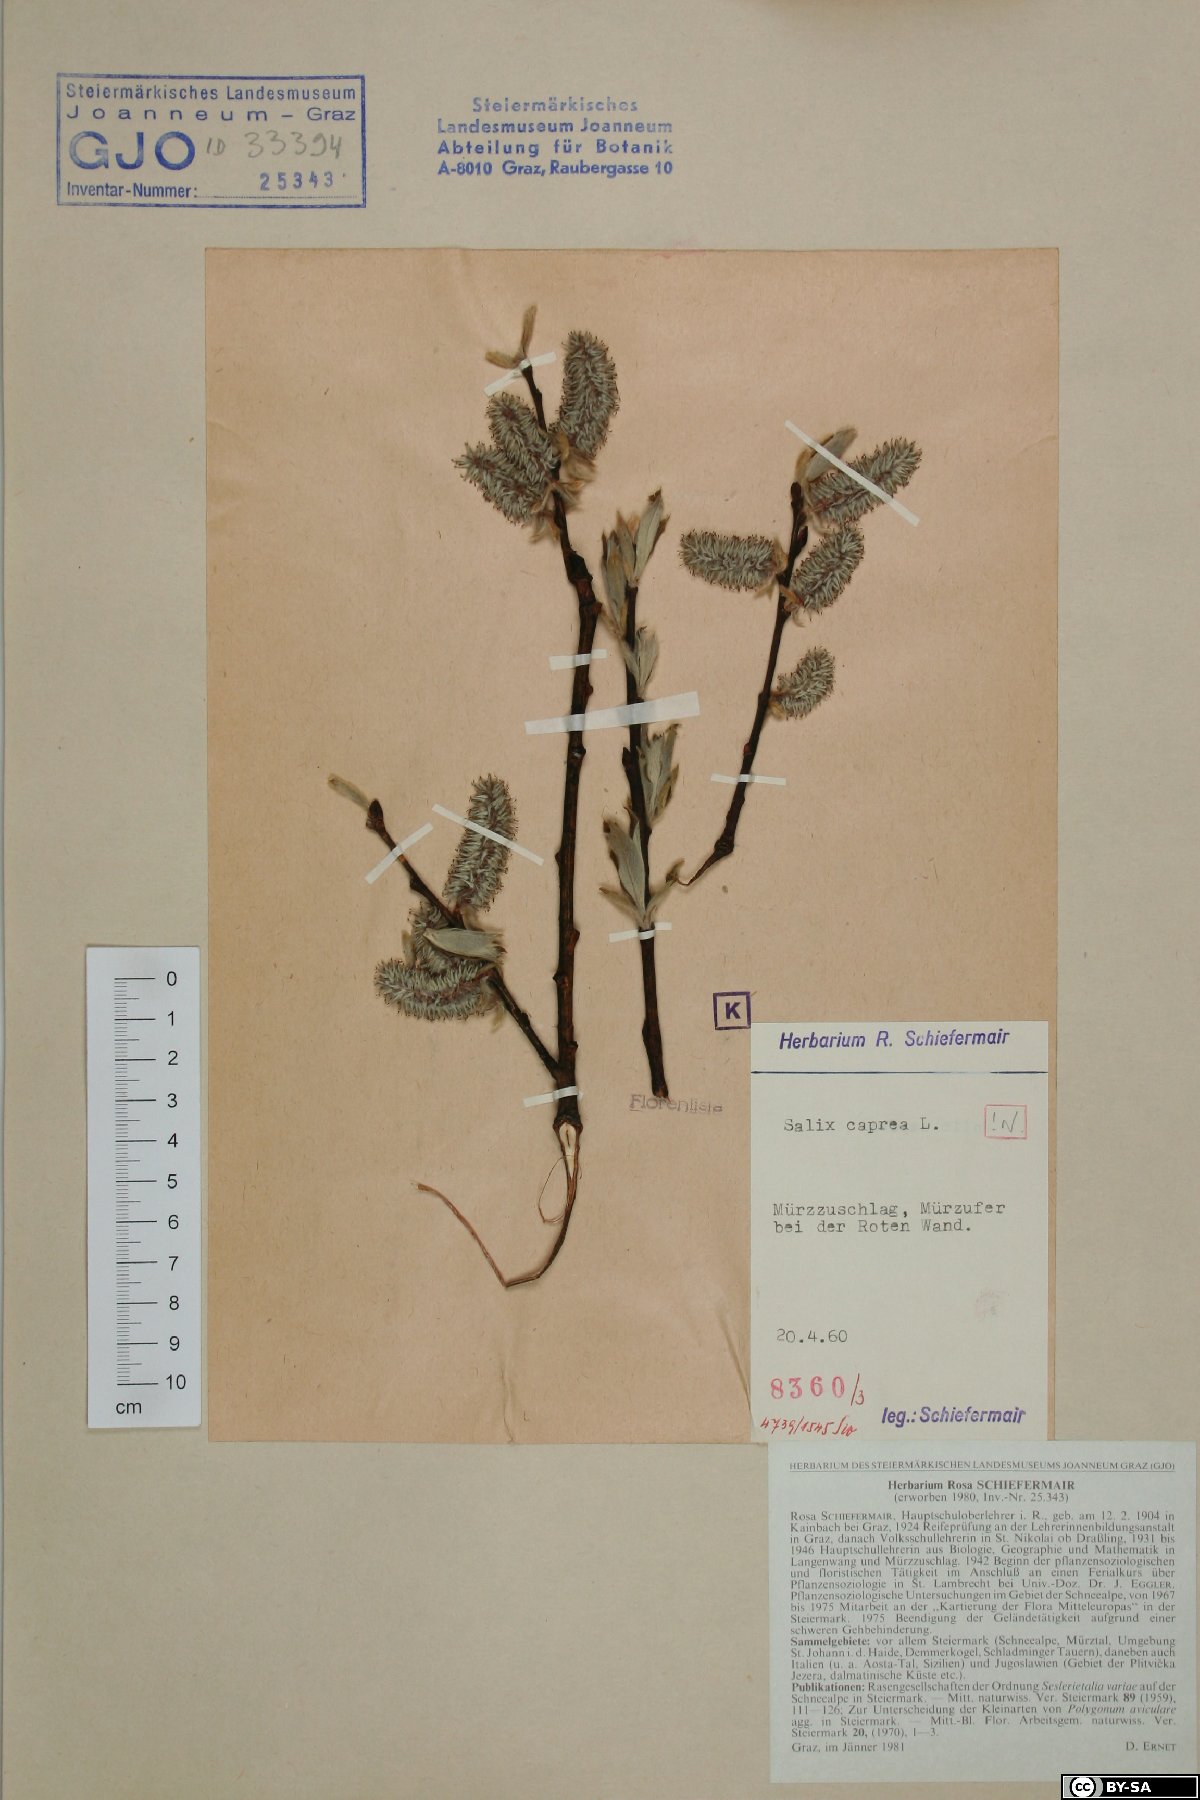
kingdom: Plantae
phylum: Tracheophyta
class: Magnoliopsida
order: Malpighiales
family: Salicaceae
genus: Salix
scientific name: Salix caprea
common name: Goat willow
